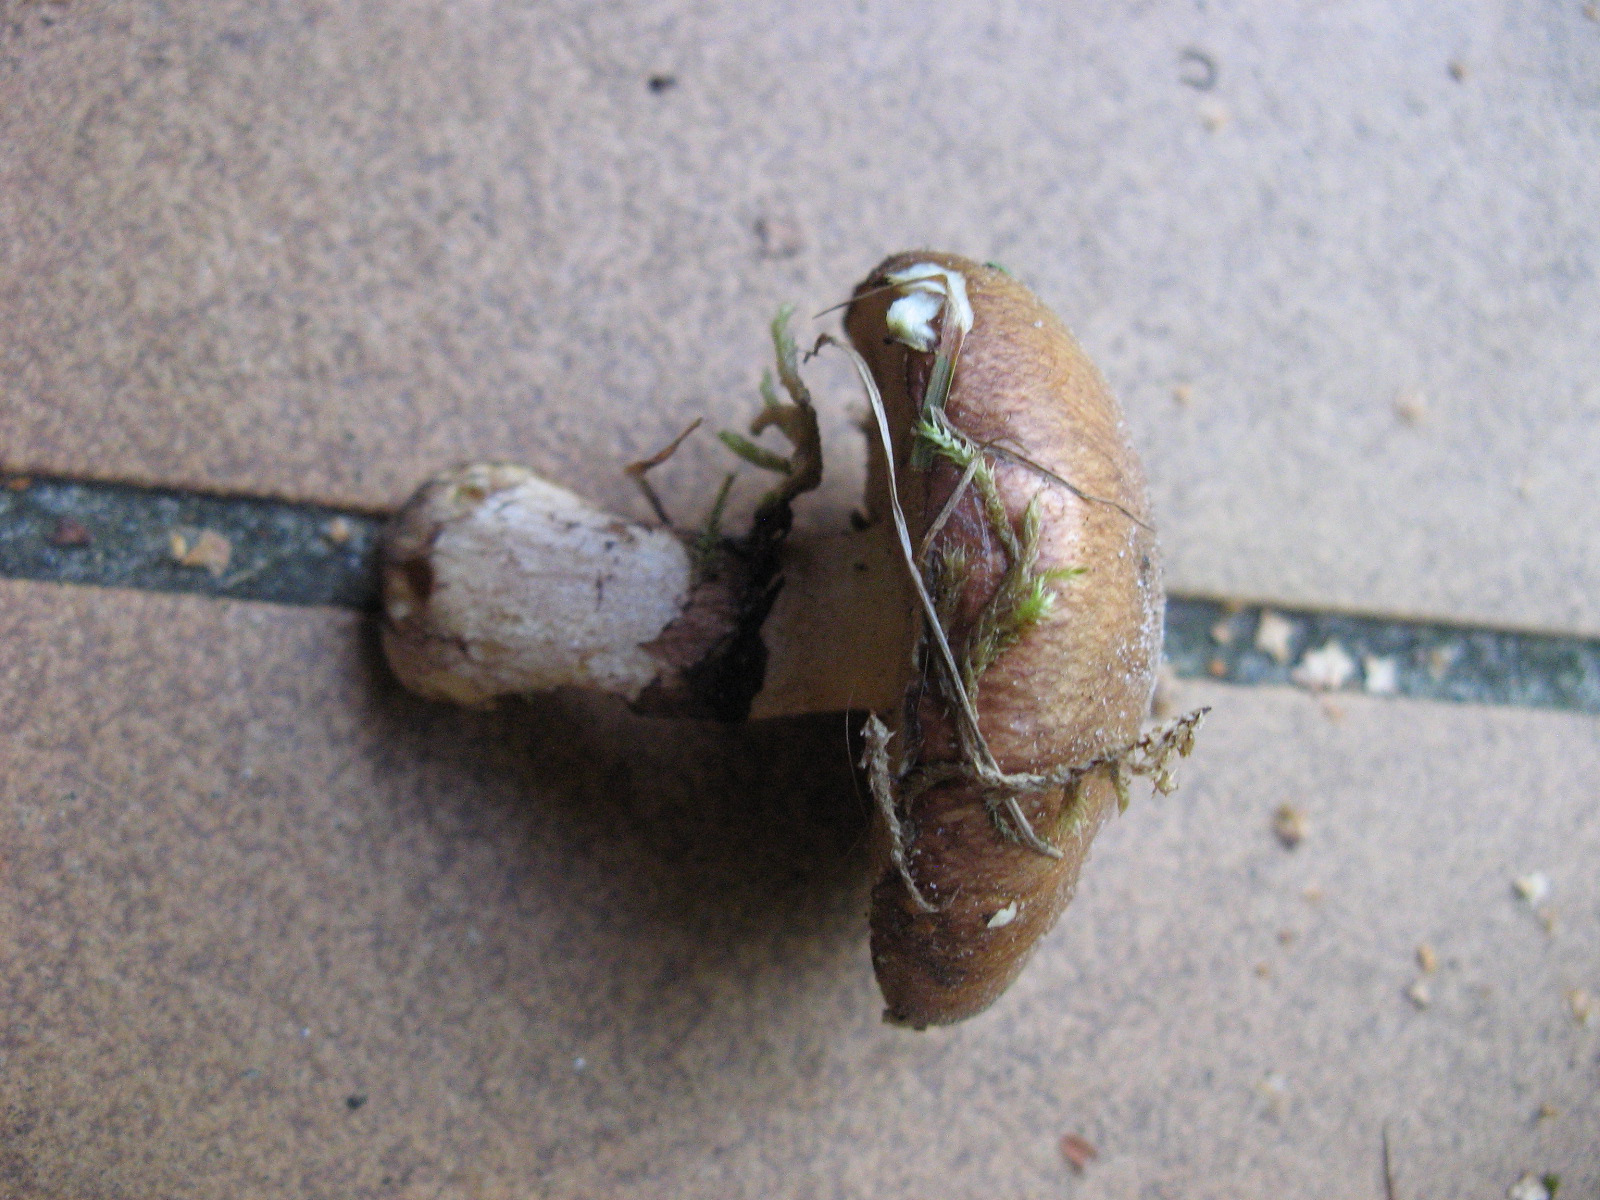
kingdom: Fungi
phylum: Basidiomycota
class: Agaricomycetes
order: Boletales
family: Suillaceae
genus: Suillus
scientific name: Suillus luteus
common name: brungul slimrørhat
